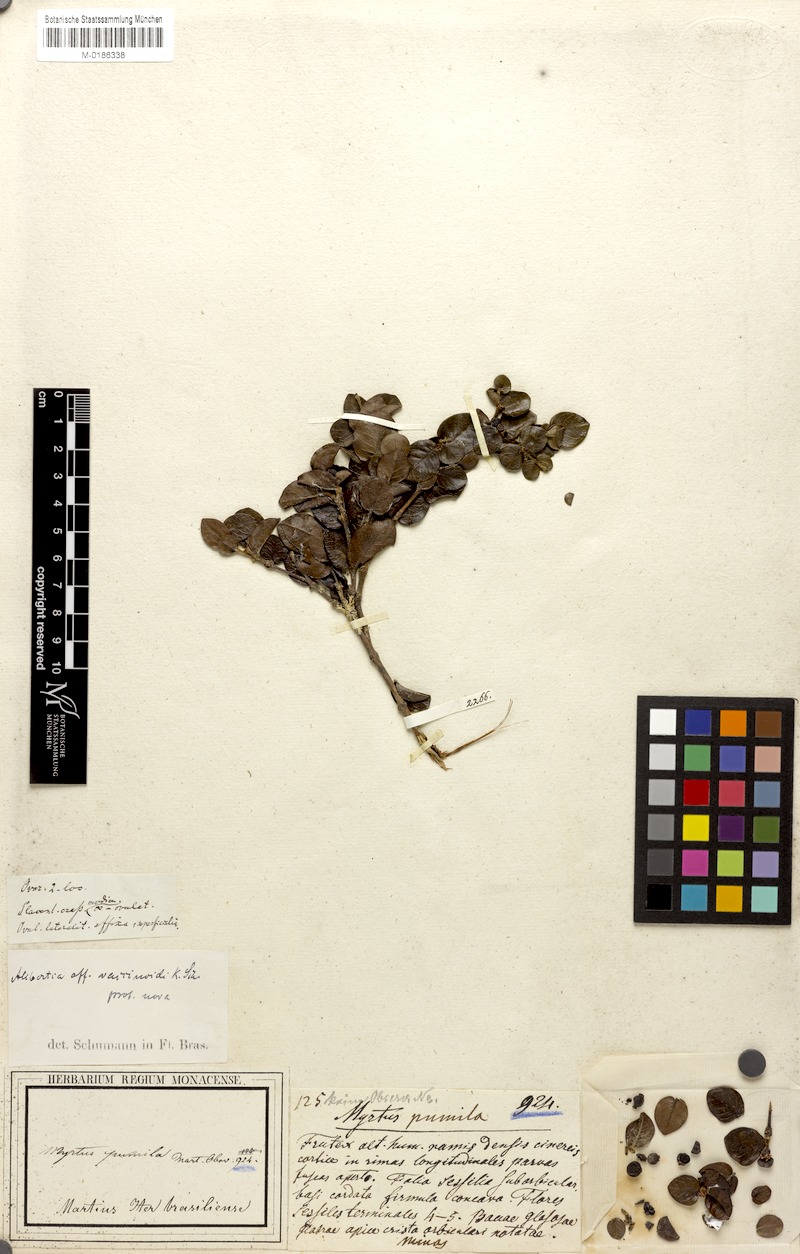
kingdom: Plantae
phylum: Tracheophyta
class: Magnoliopsida
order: Gentianales
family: Rubiaceae
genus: Cordiera
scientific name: Cordiera concolor
